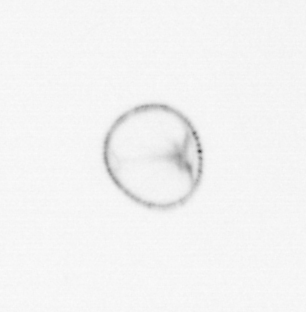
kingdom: Chromista
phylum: Myzozoa
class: Dinophyceae
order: Noctilucales
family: Noctilucaceae
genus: Noctiluca
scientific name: Noctiluca scintillans
